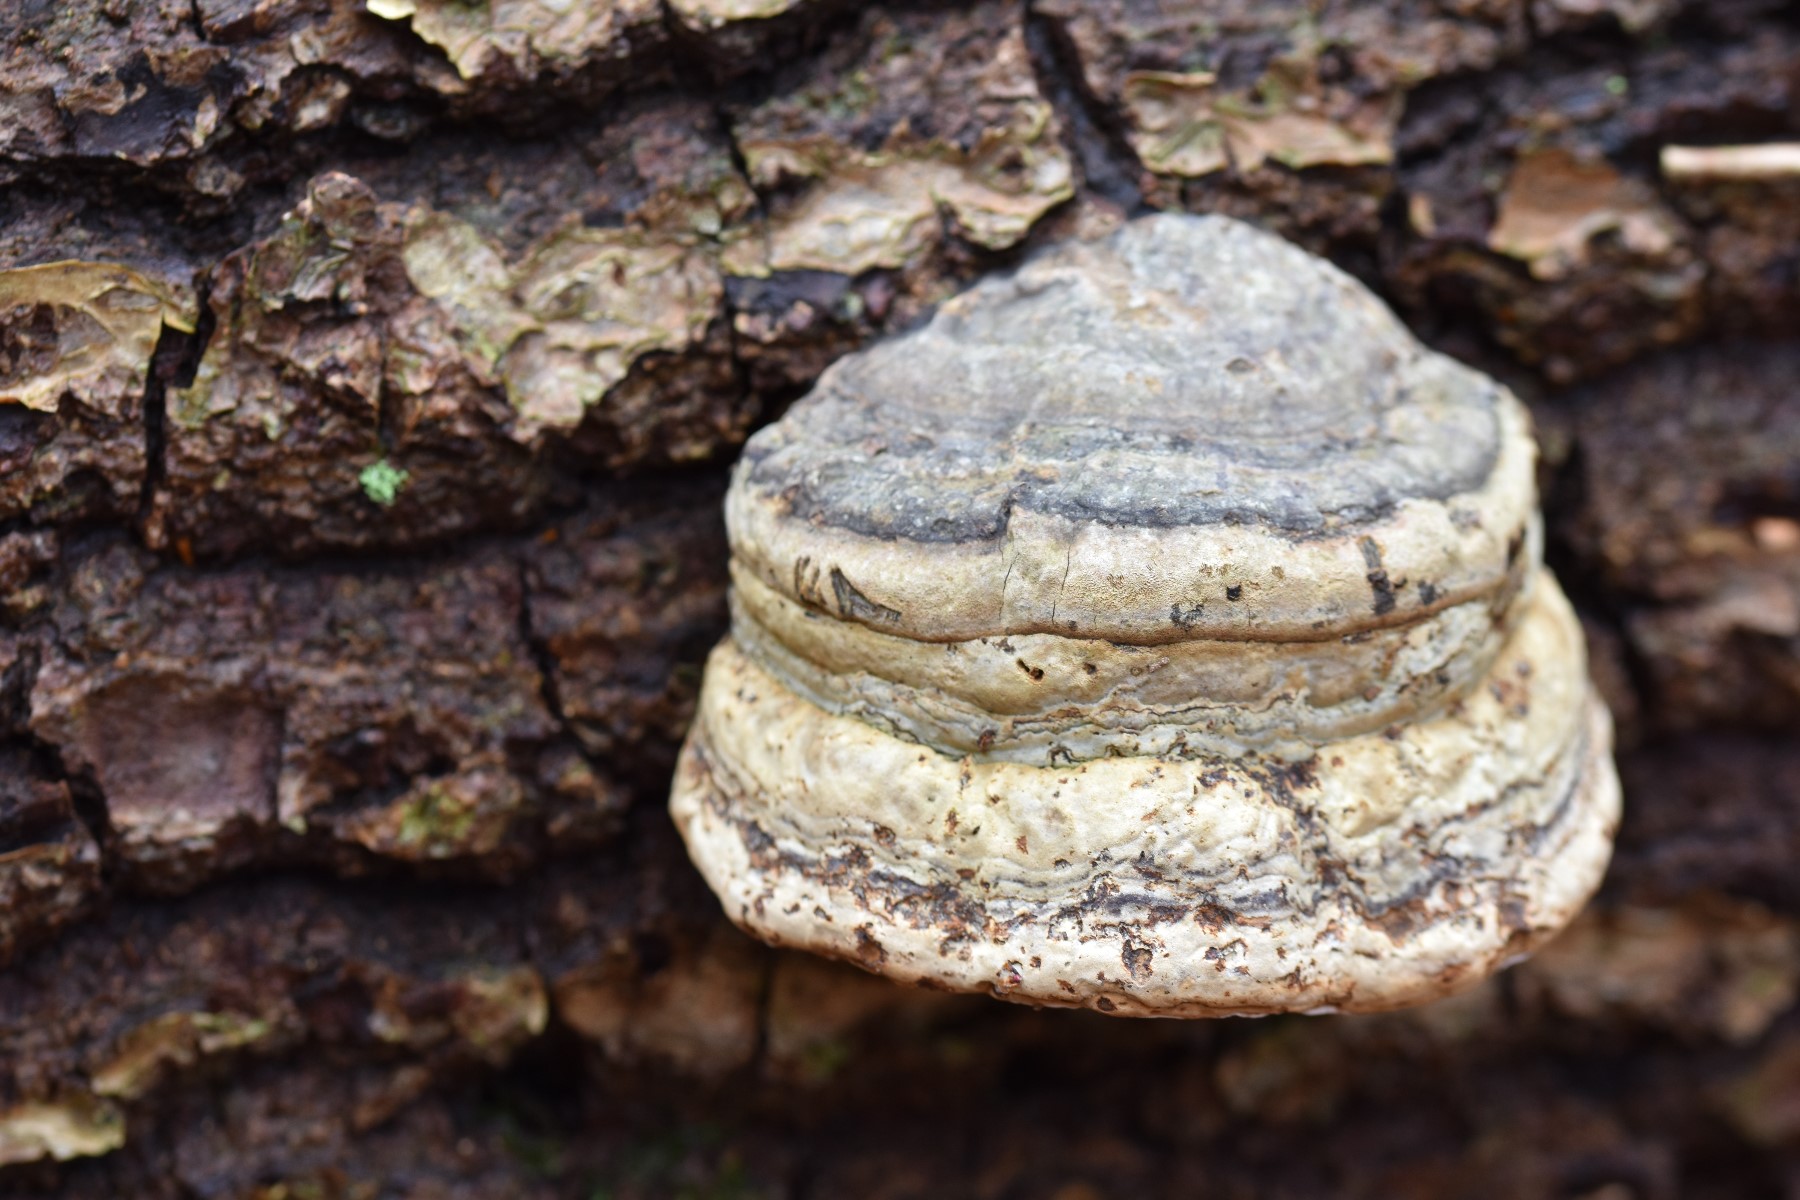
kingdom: Fungi
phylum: Basidiomycota
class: Agaricomycetes
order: Polyporales
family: Polyporaceae
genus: Fomes
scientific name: Fomes fomentarius
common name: tøndersvamp
